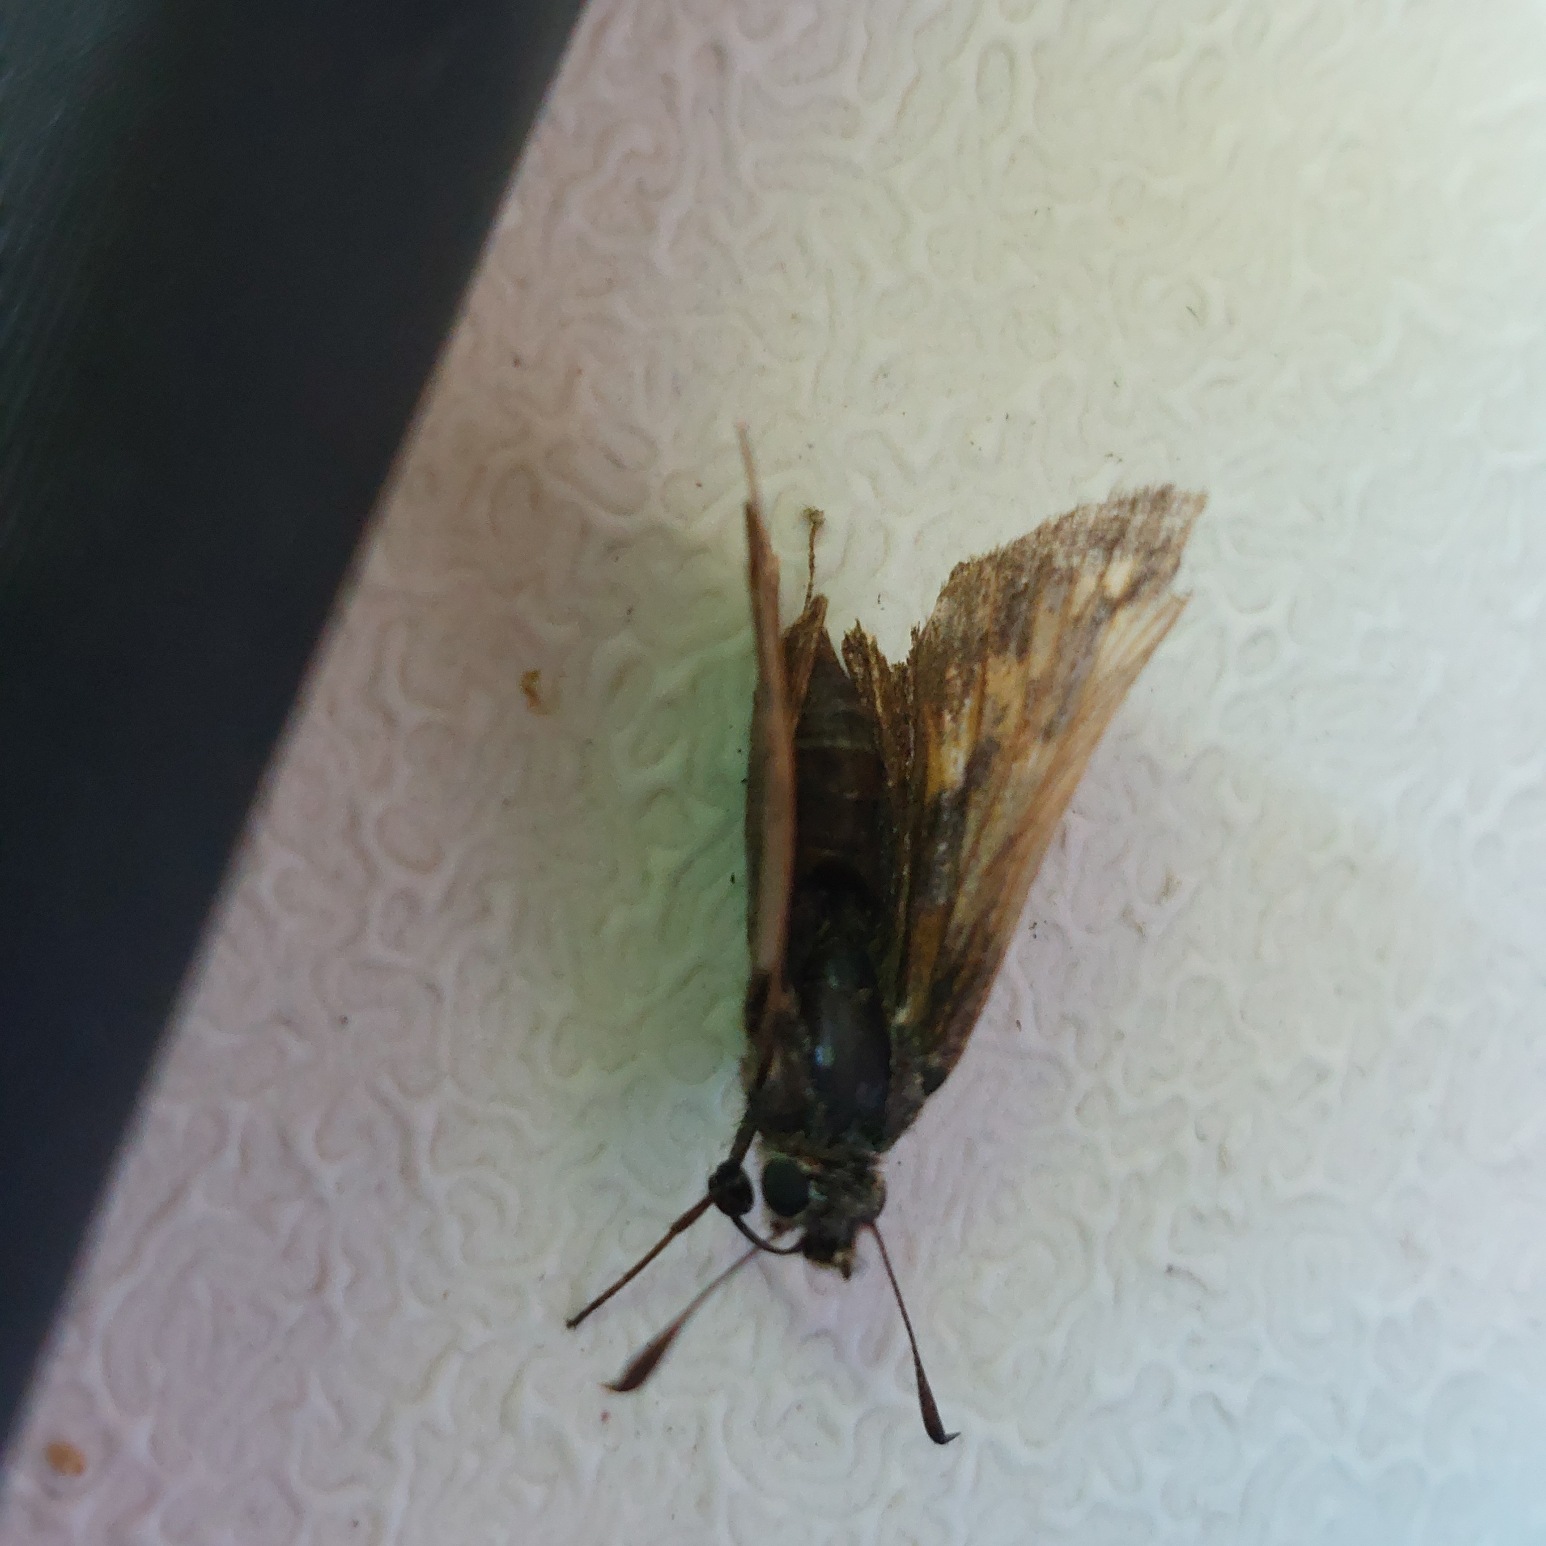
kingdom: Animalia
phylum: Arthropoda
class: Insecta
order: Lepidoptera
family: Hesperiidae
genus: Ochlodes
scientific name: Ochlodes venata
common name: Stor bredpande
